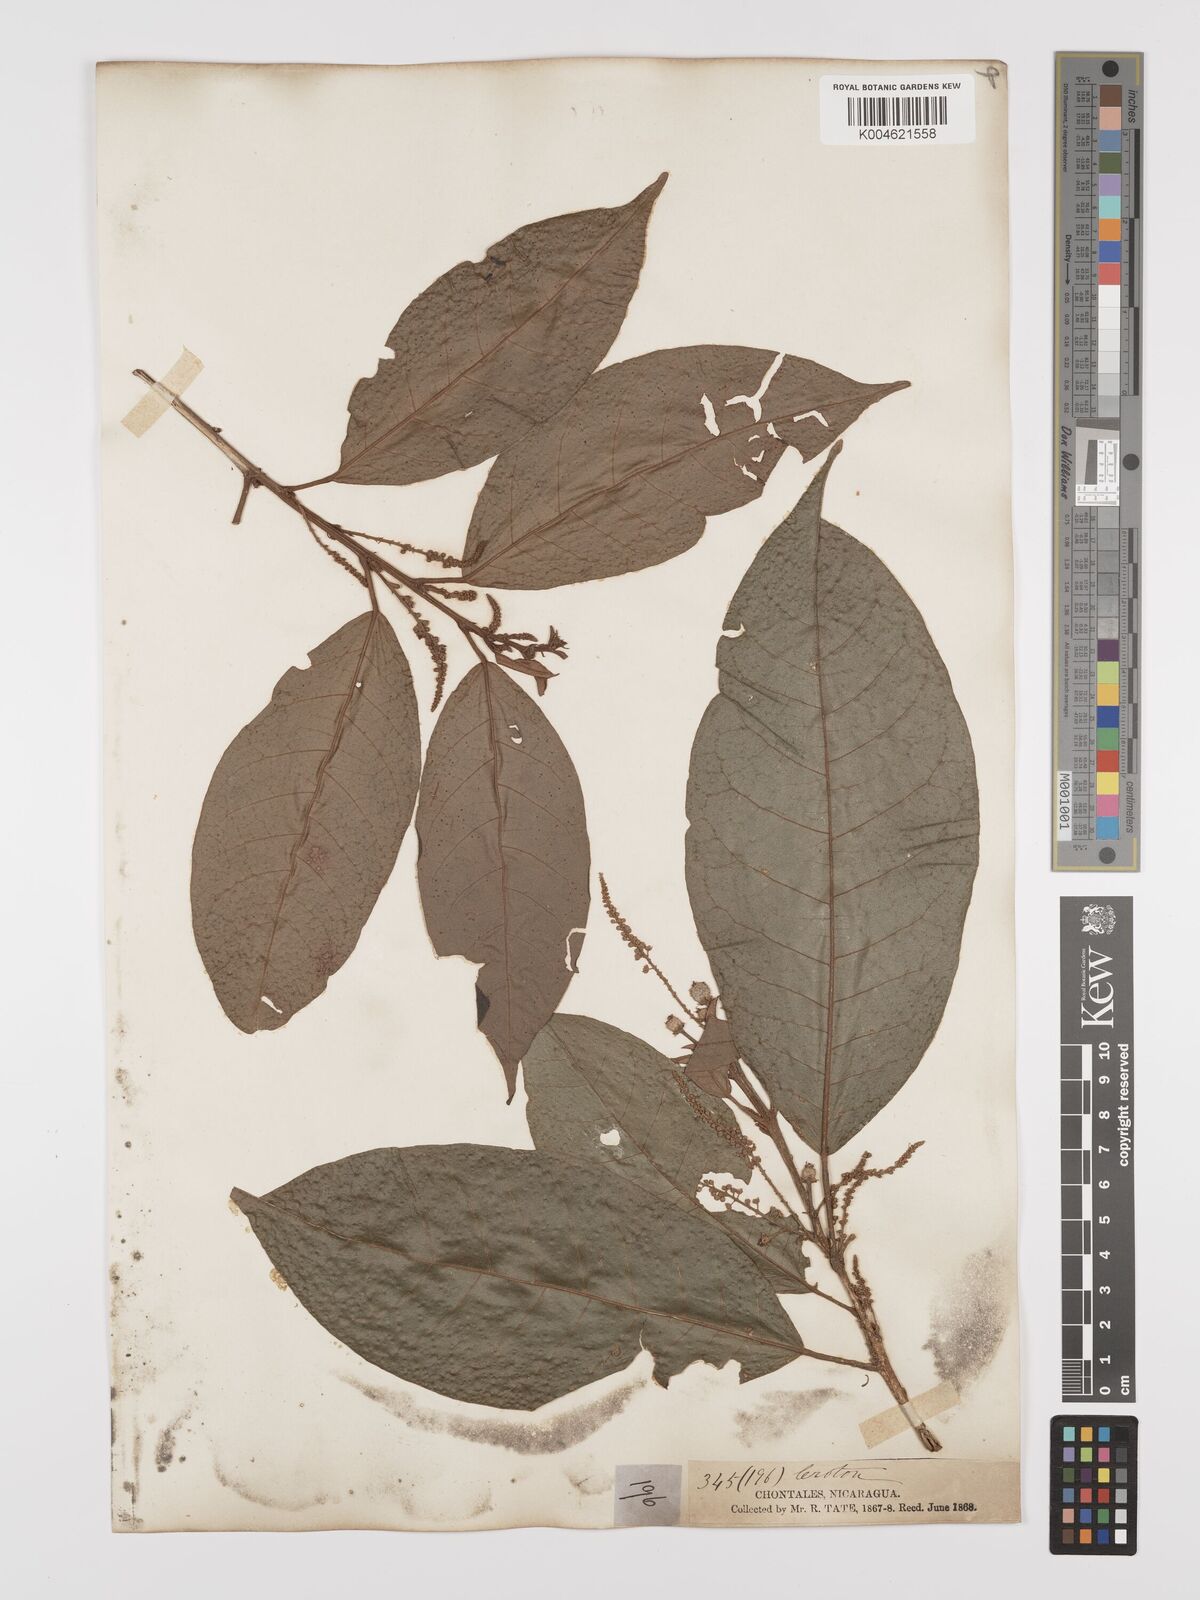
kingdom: Plantae
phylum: Tracheophyta
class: Magnoliopsida
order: Malpighiales
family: Euphorbiaceae
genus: Croton
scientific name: Croton glabellus
